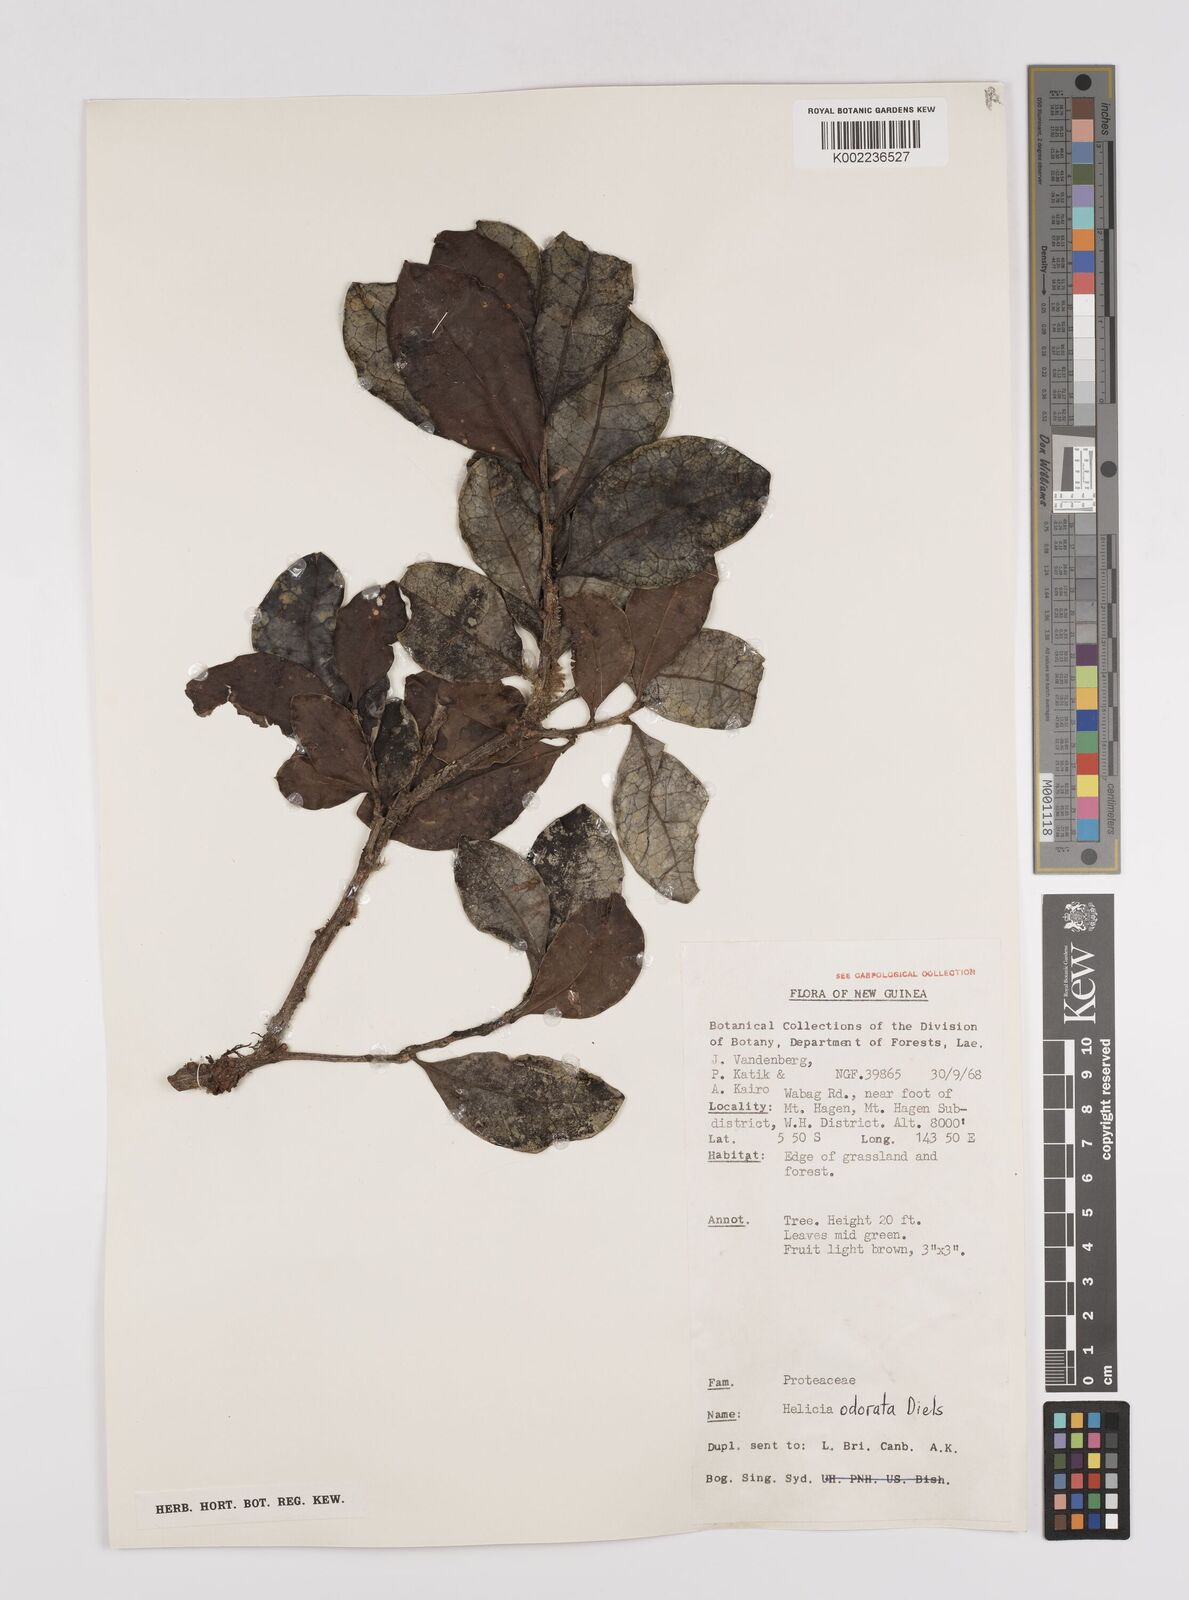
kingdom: Plantae
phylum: Tracheophyta
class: Magnoliopsida
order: Proteales
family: Proteaceae
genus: Helicia
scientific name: Helicia odorata
